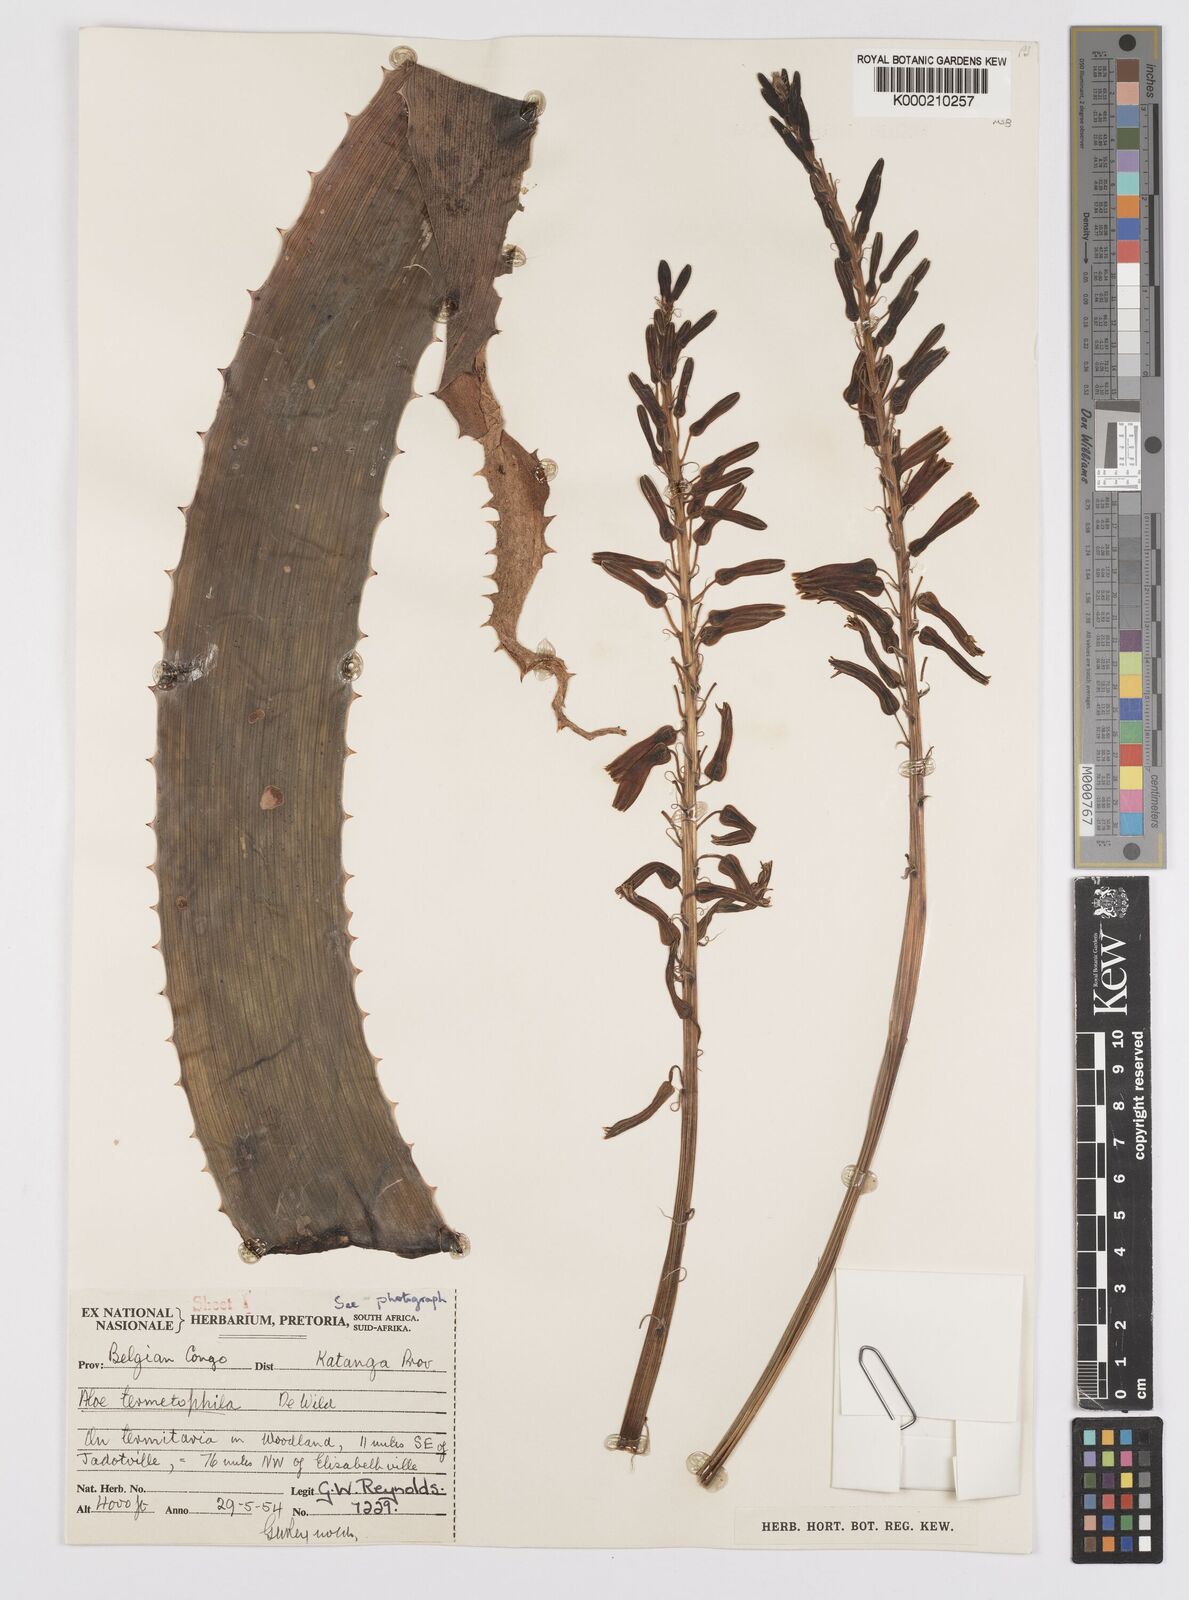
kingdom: Plantae
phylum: Tracheophyta
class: Liliopsida
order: Asparagales
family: Asphodelaceae
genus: Aloe
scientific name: Aloe greatheadii
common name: Greathead's aloe
